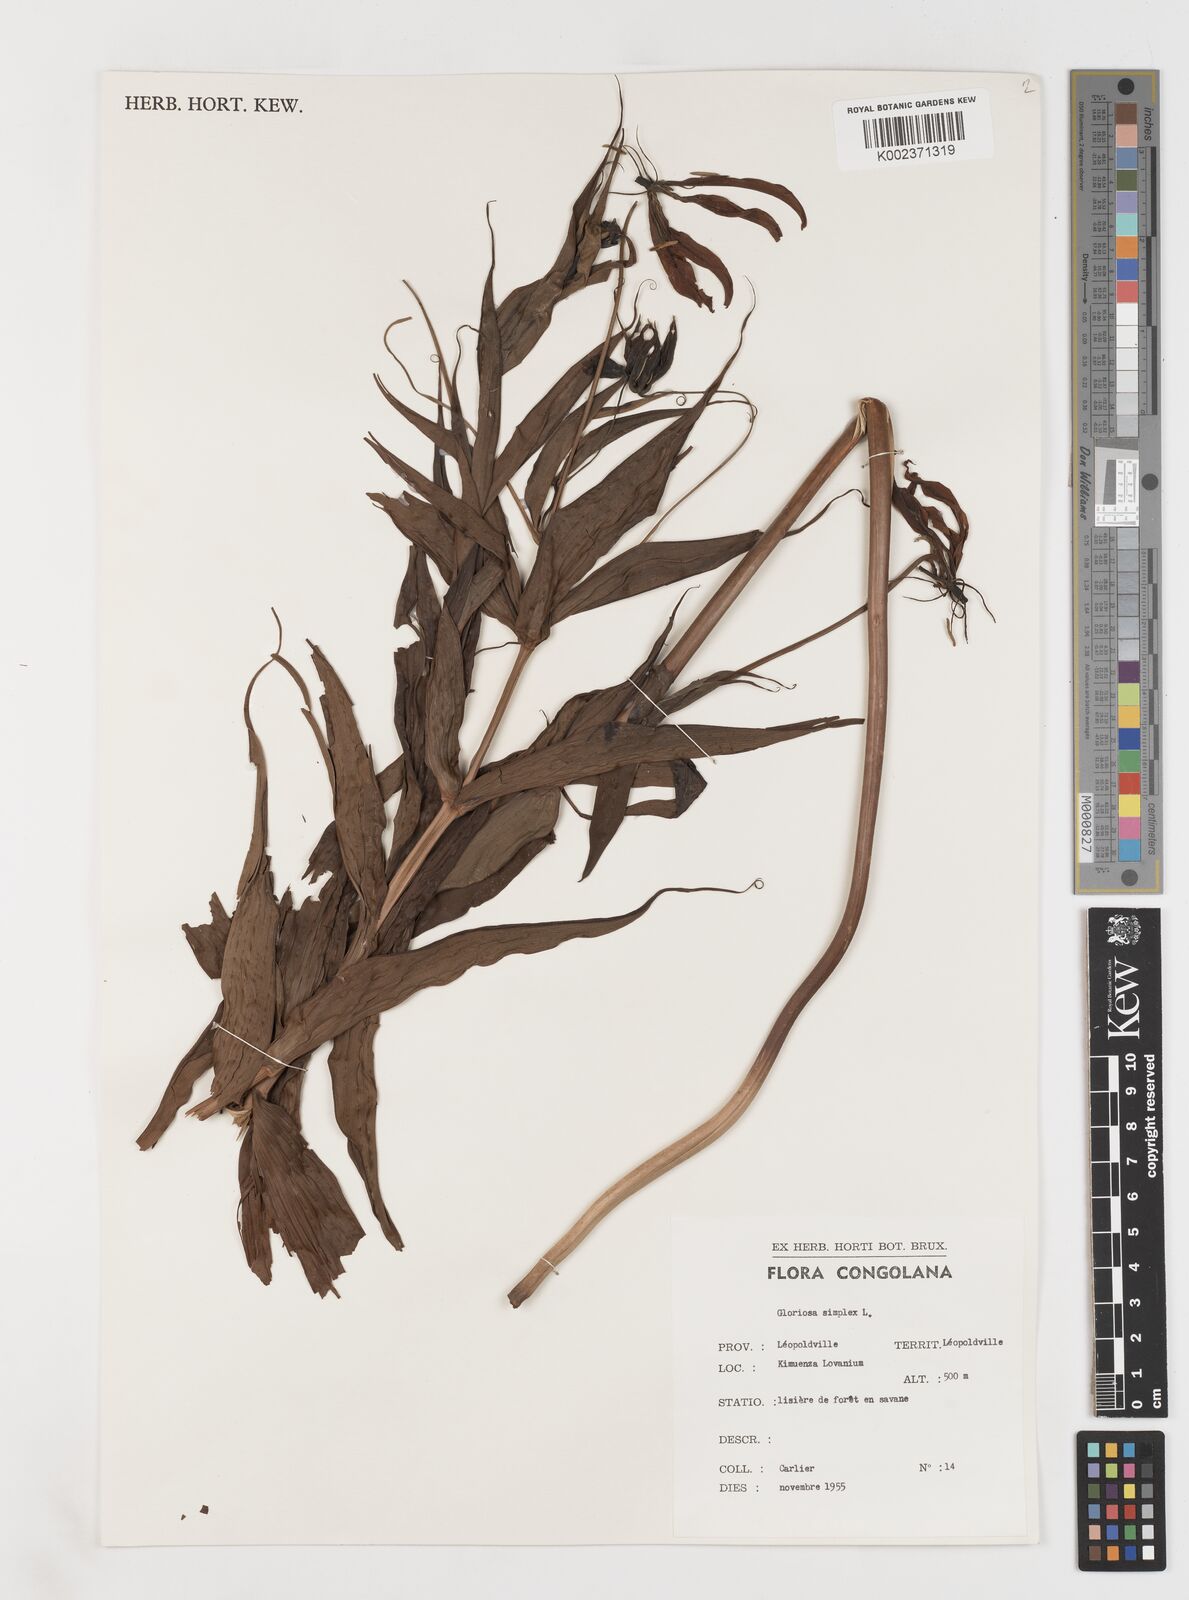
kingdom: Plantae
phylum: Tracheophyta
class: Liliopsida
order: Liliales
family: Colchicaceae
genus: Gloriosa
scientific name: Gloriosa simplex
